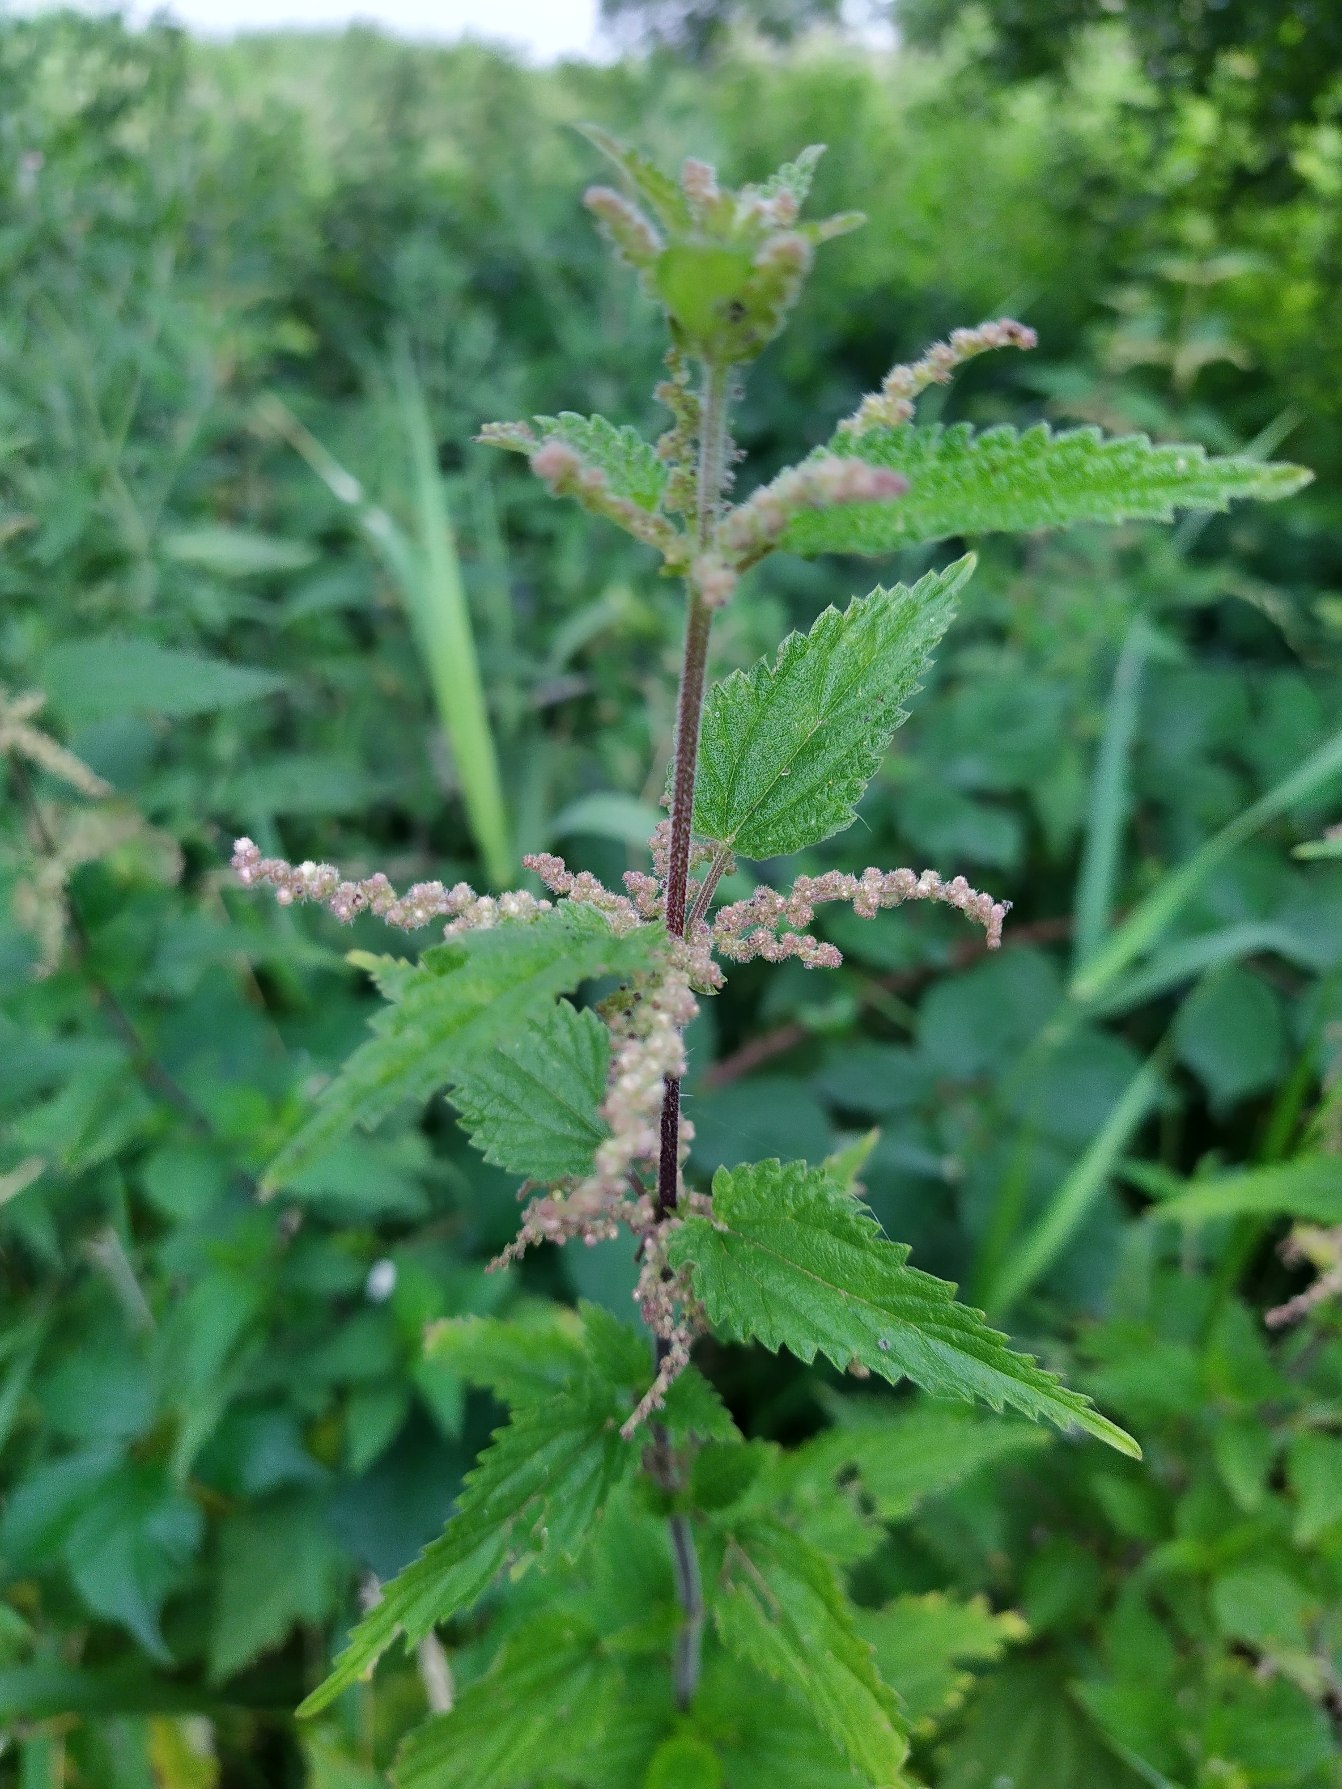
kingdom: Plantae
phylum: Tracheophyta
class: Magnoliopsida
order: Rosales
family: Urticaceae
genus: Urtica
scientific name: Urtica dioica
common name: Stor nælde
